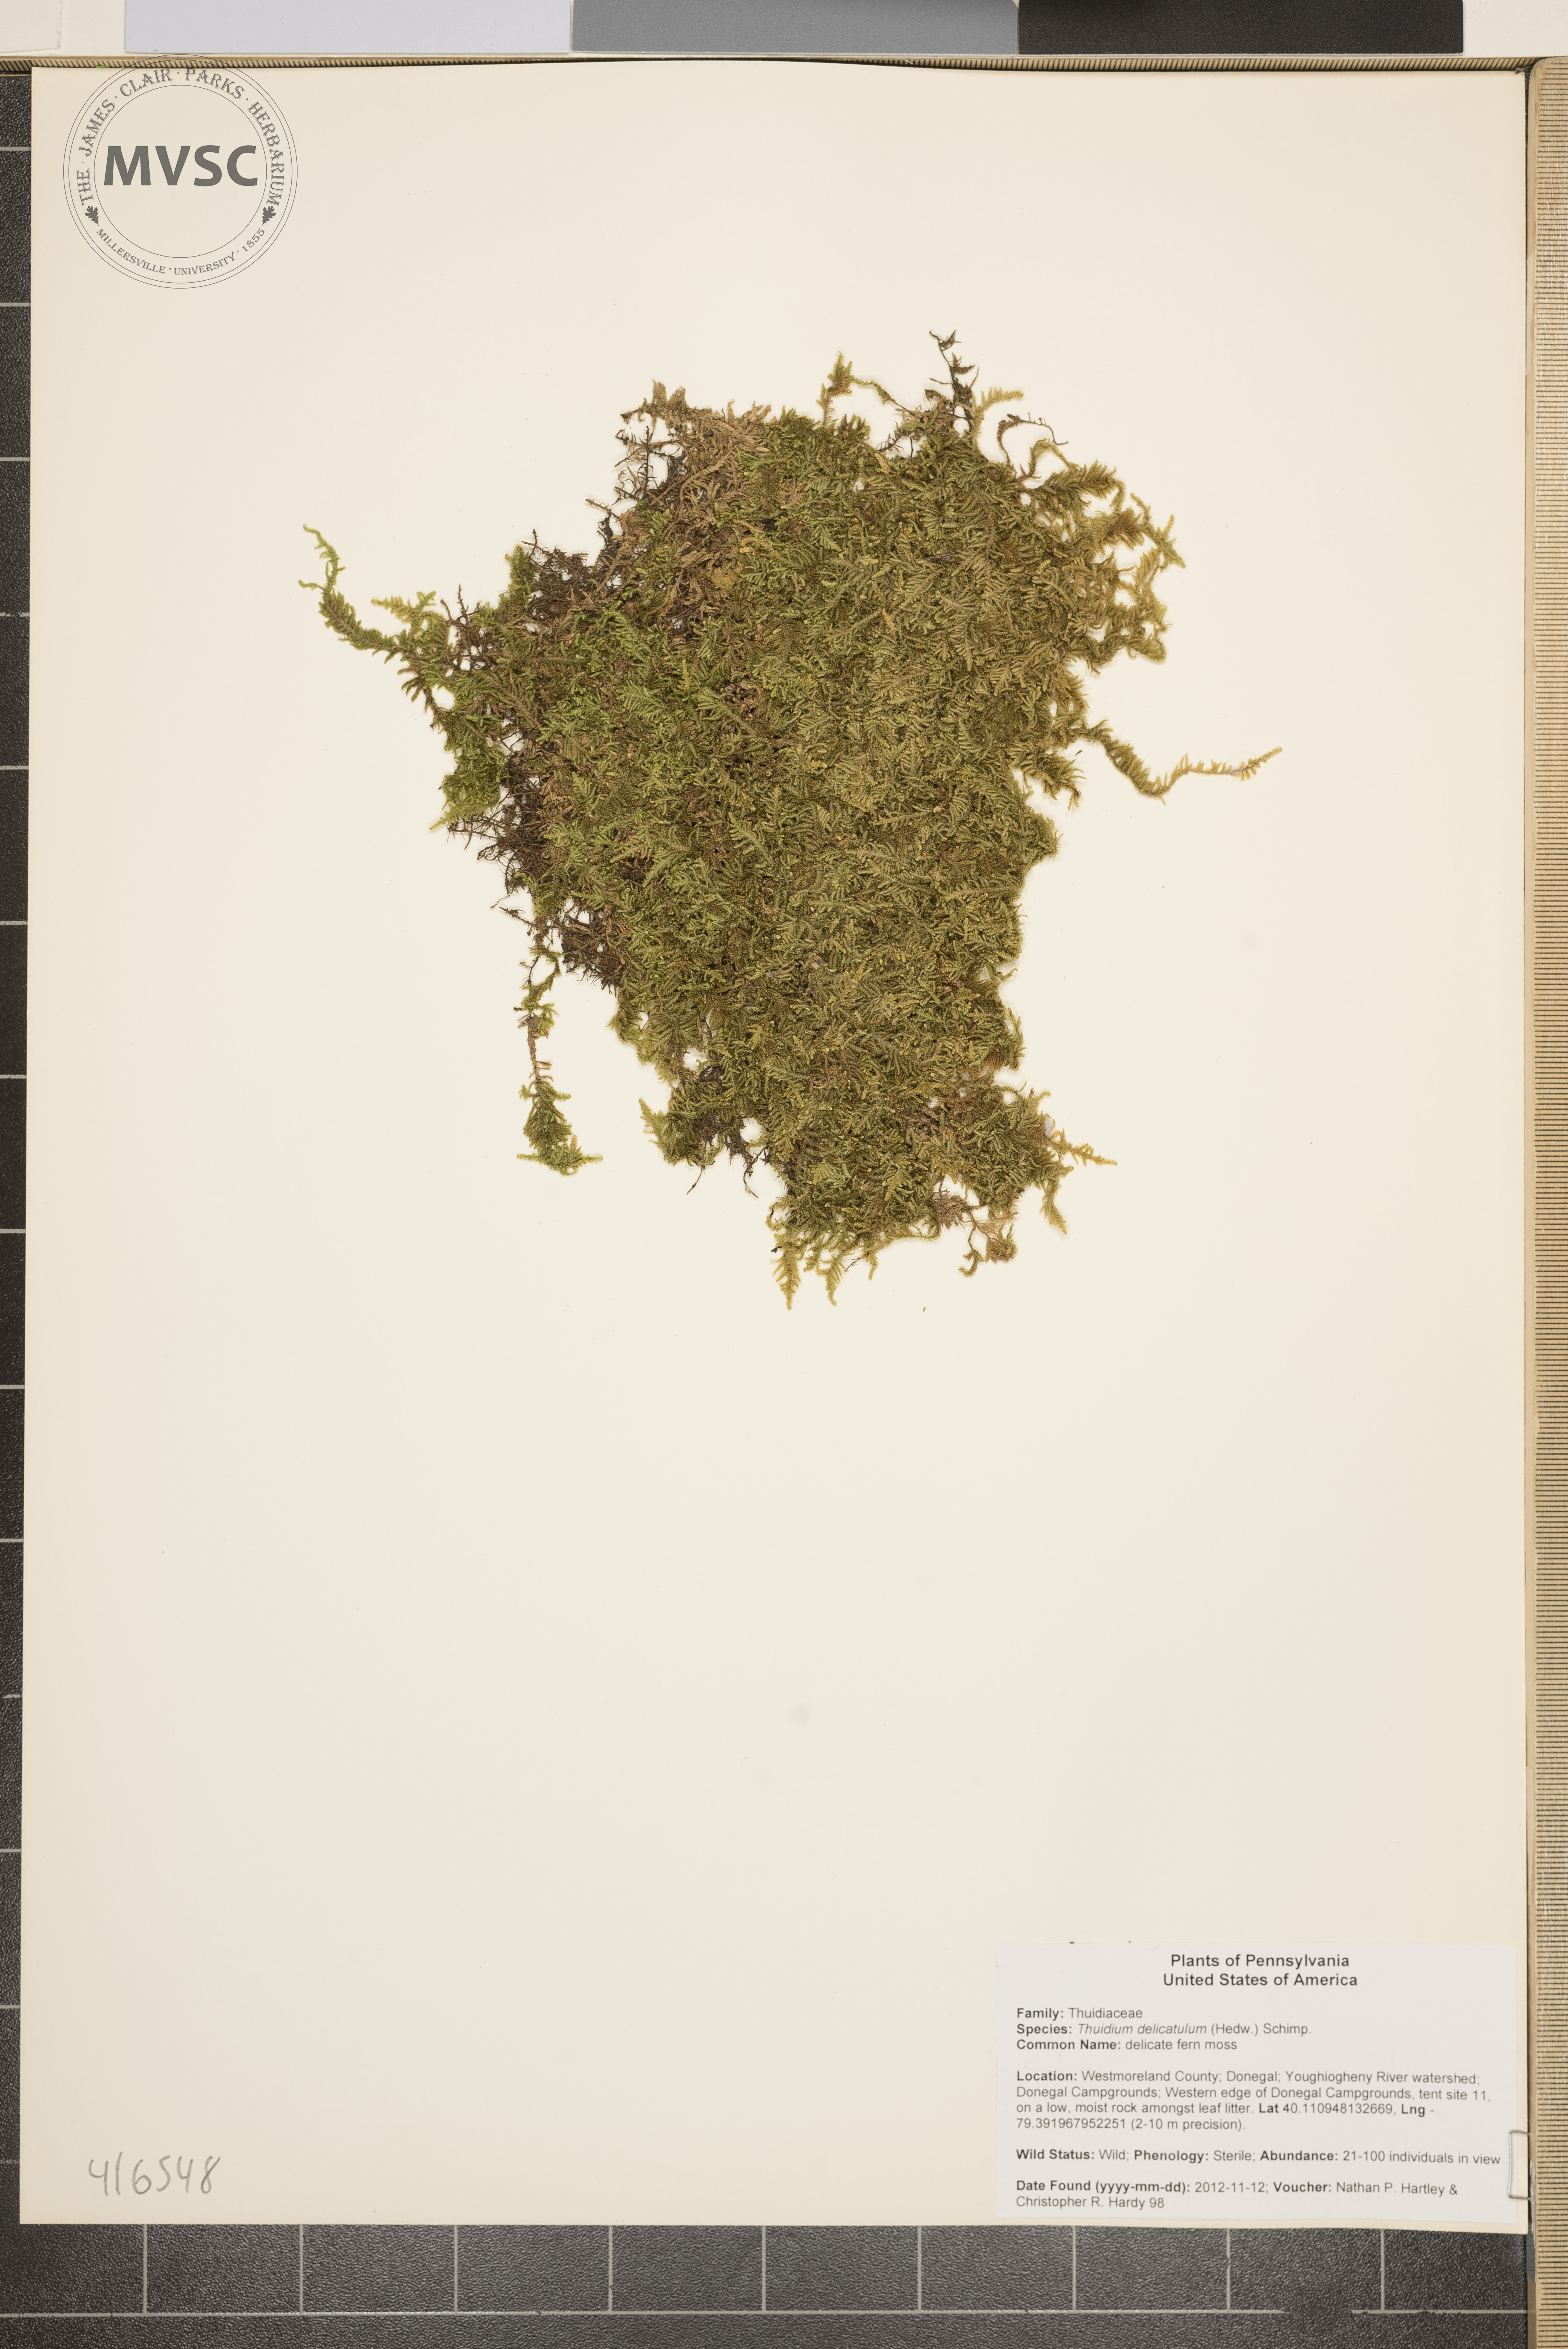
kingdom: Plantae
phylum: Bryophyta
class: Bryopsida
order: Hypnales
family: Thuidiaceae
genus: Thuidium
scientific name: Thuidium delicatulum
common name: delicate fern moss
